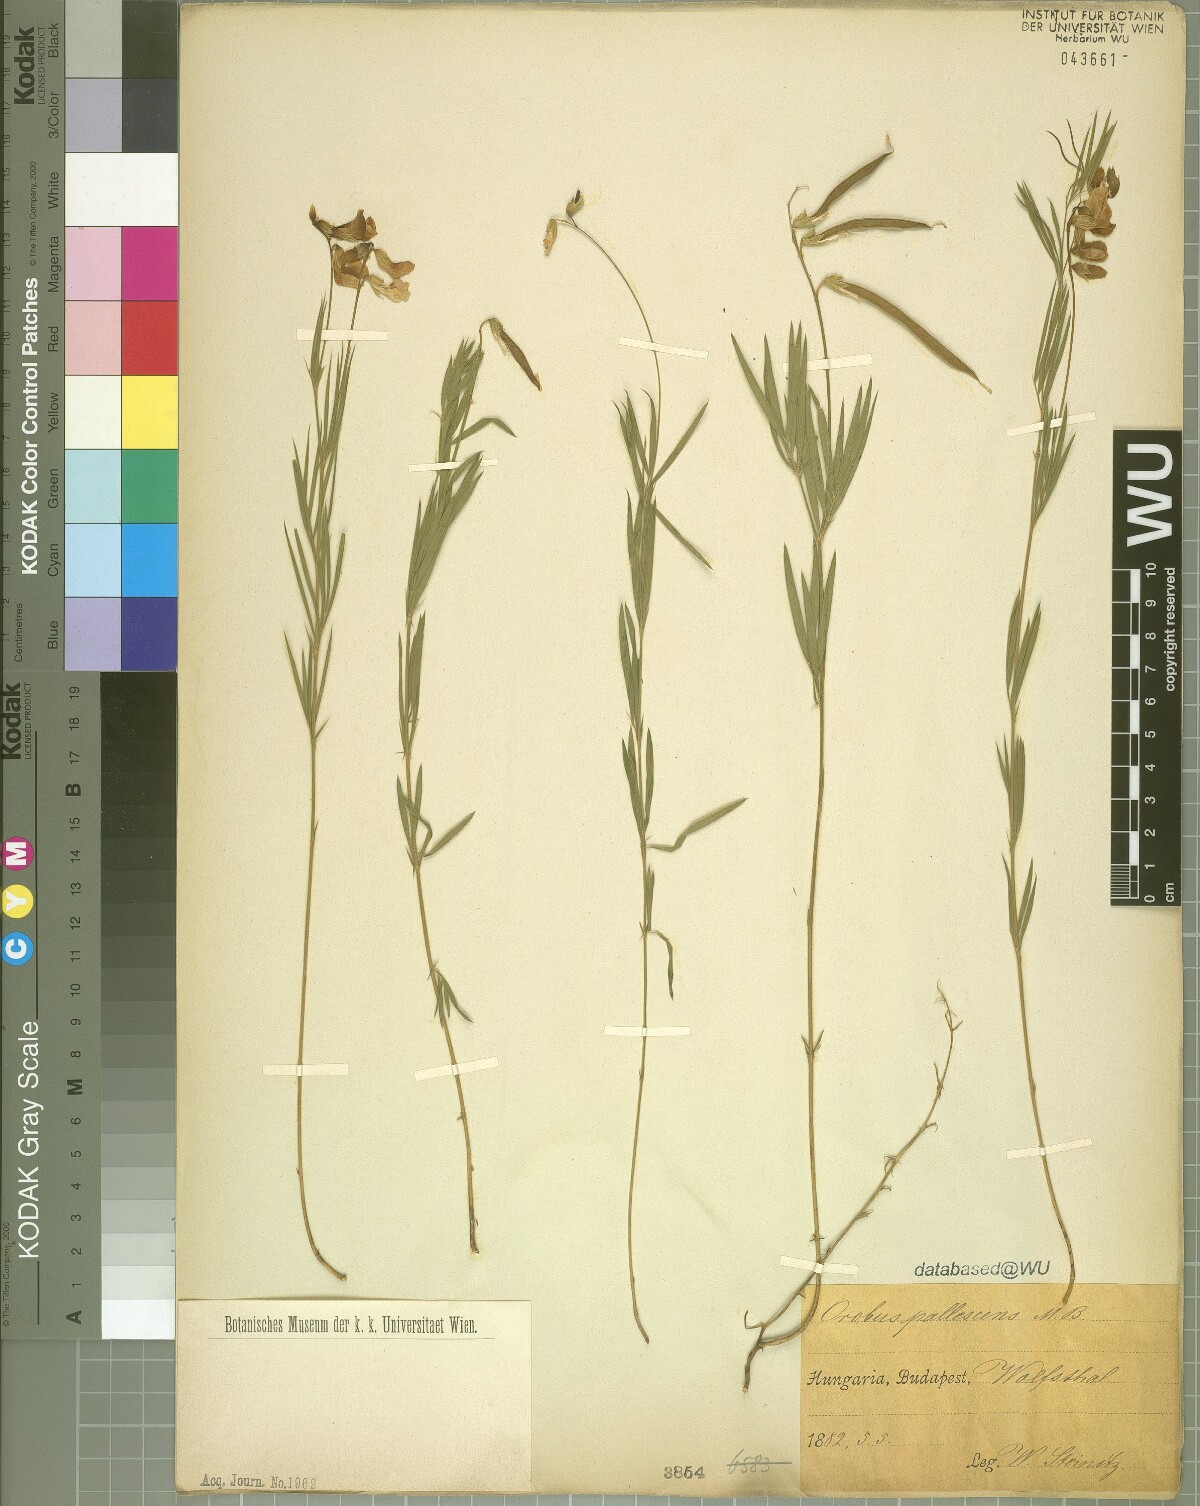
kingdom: Plantae
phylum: Tracheophyta
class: Magnoliopsida
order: Fabales
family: Fabaceae
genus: Lathyrus
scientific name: Lathyrus pallescens
